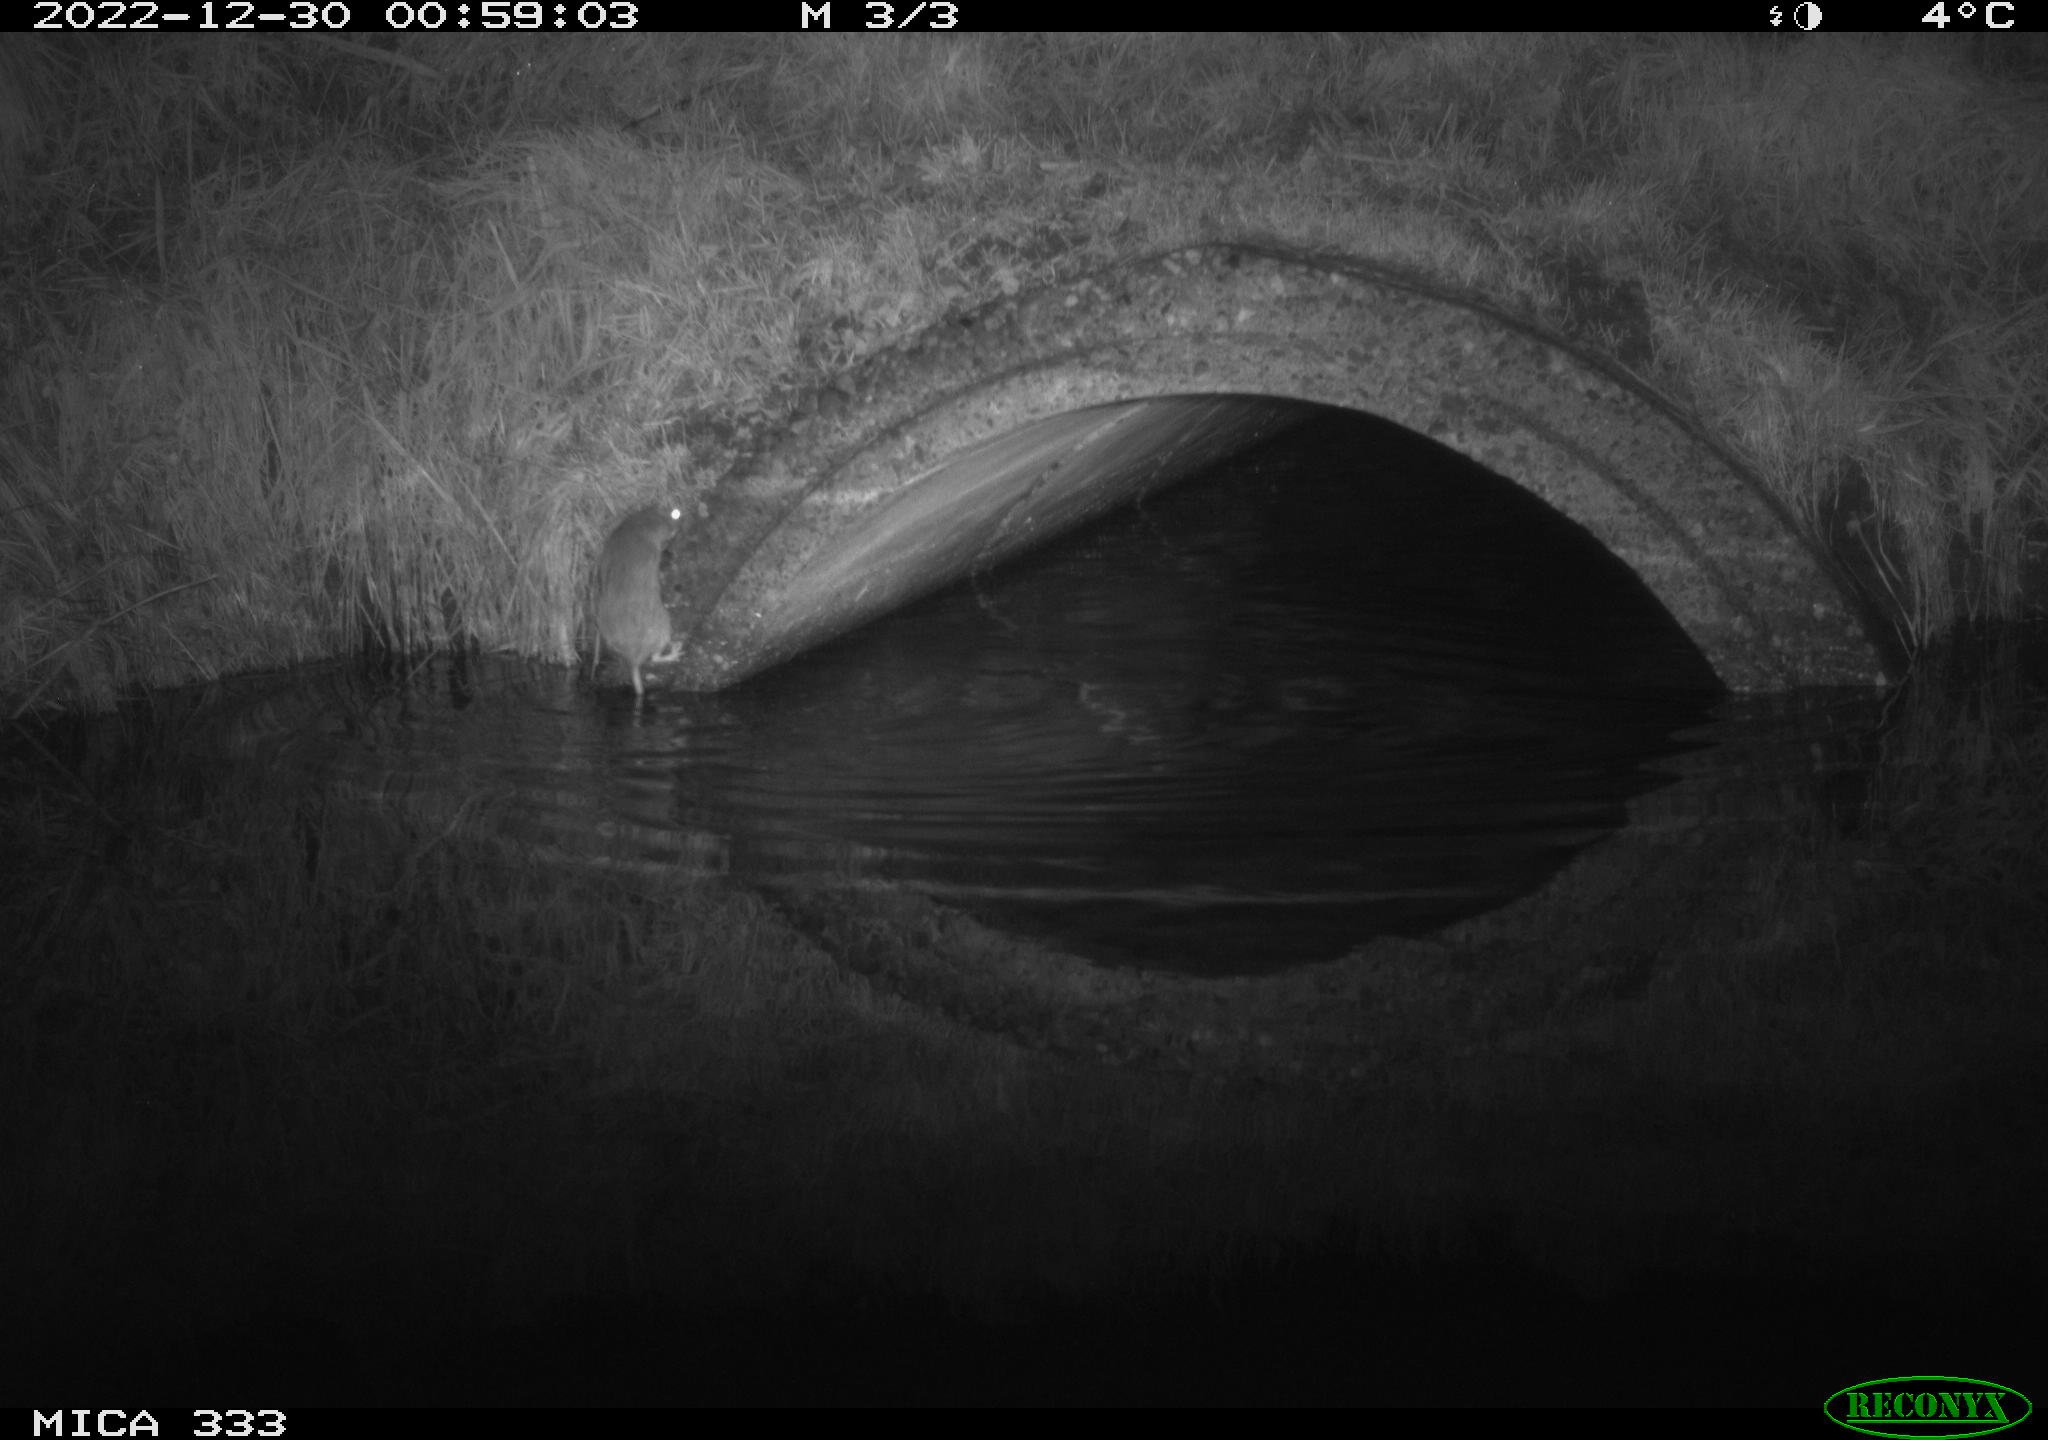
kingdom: Animalia
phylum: Chordata
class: Mammalia
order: Carnivora
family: Mustelidae
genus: Lutra
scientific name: Lutra lutra
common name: European otter
